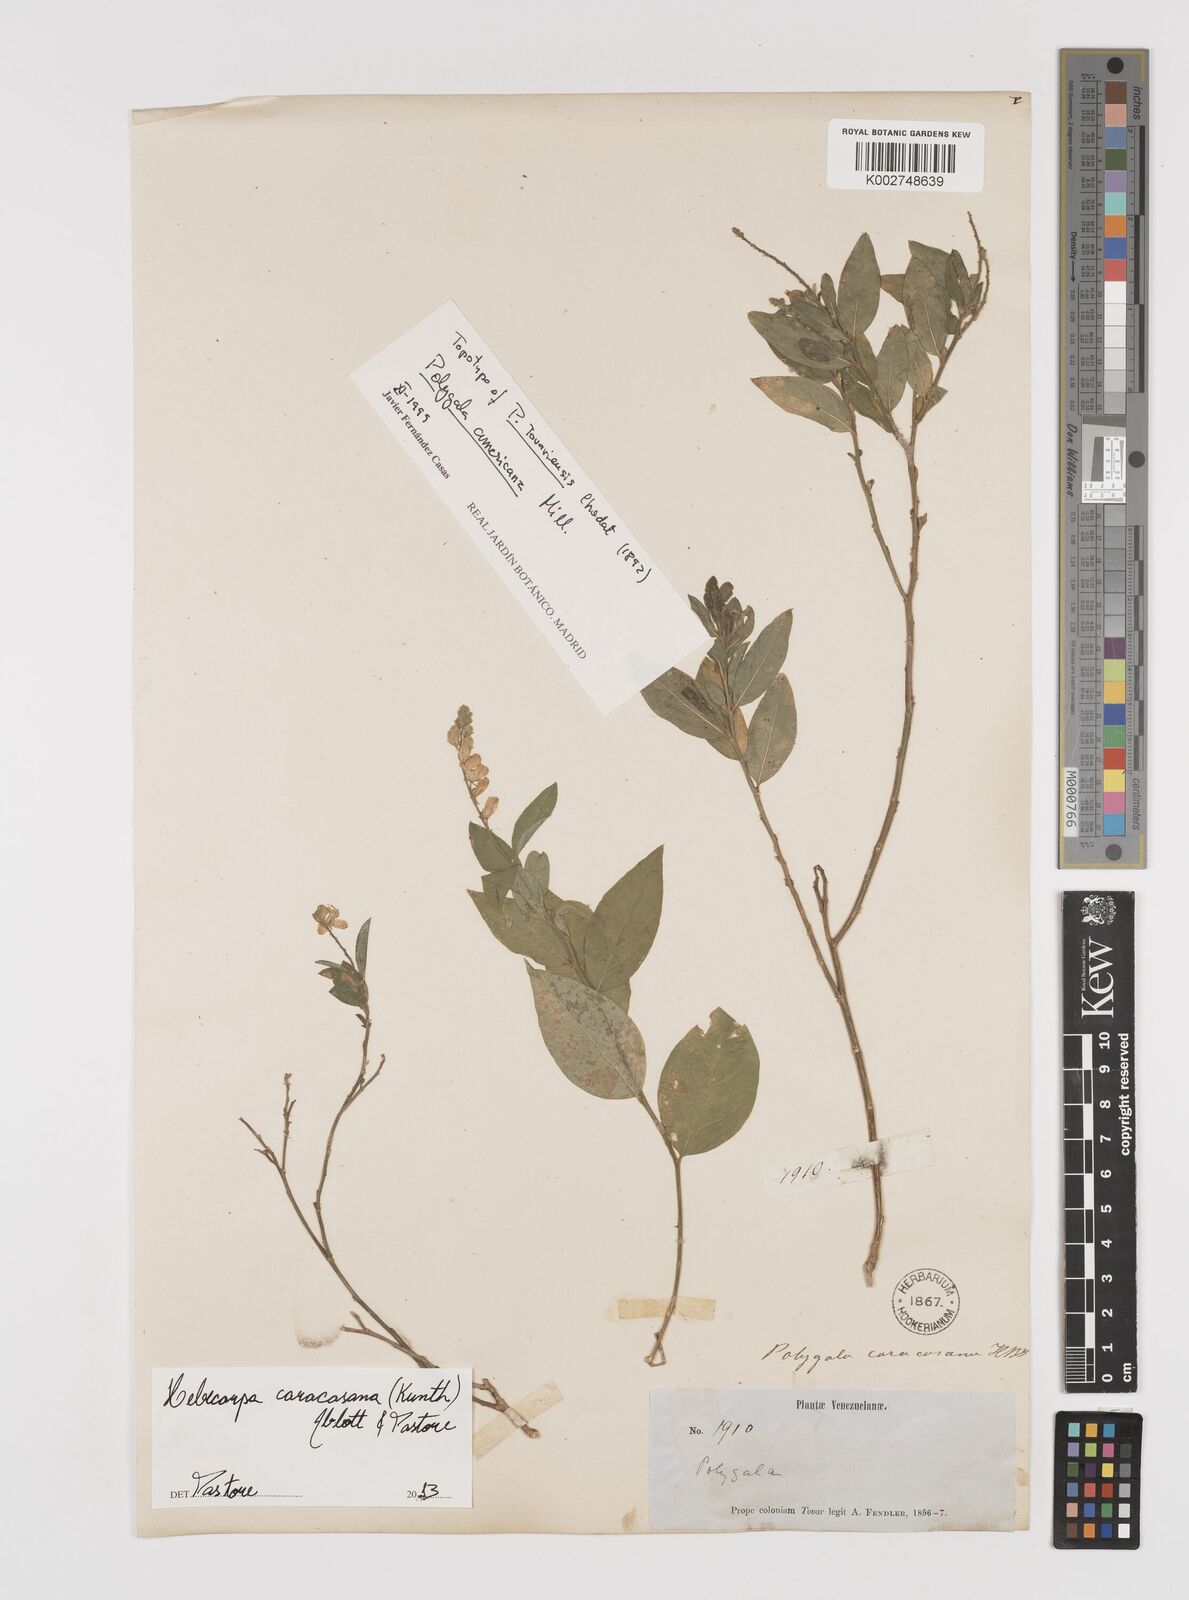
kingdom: Plantae
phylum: Tracheophyta
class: Magnoliopsida
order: Fabales
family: Polygalaceae
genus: Hebecarpa
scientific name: Hebecarpa caracasana
